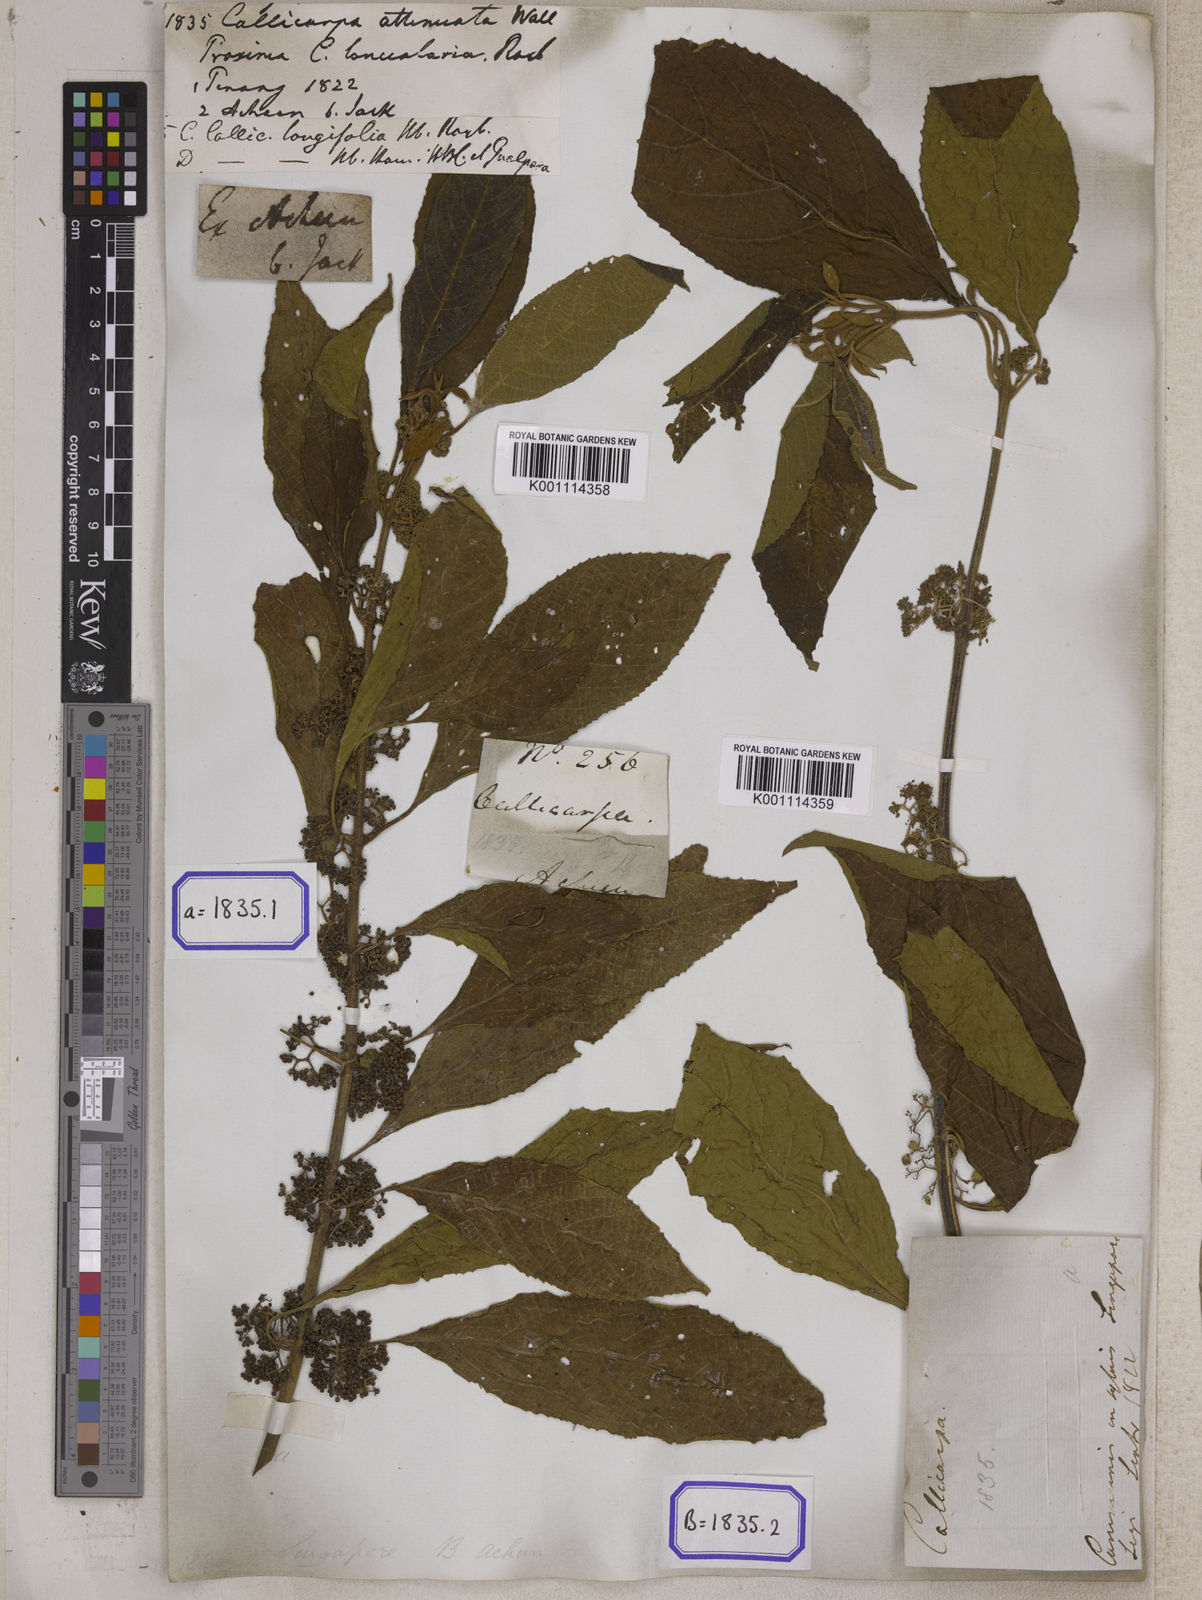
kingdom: Plantae
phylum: Tracheophyta
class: Magnoliopsida
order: Lamiales
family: Lamiaceae
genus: Callicarpa
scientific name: Callicarpa longifolia
